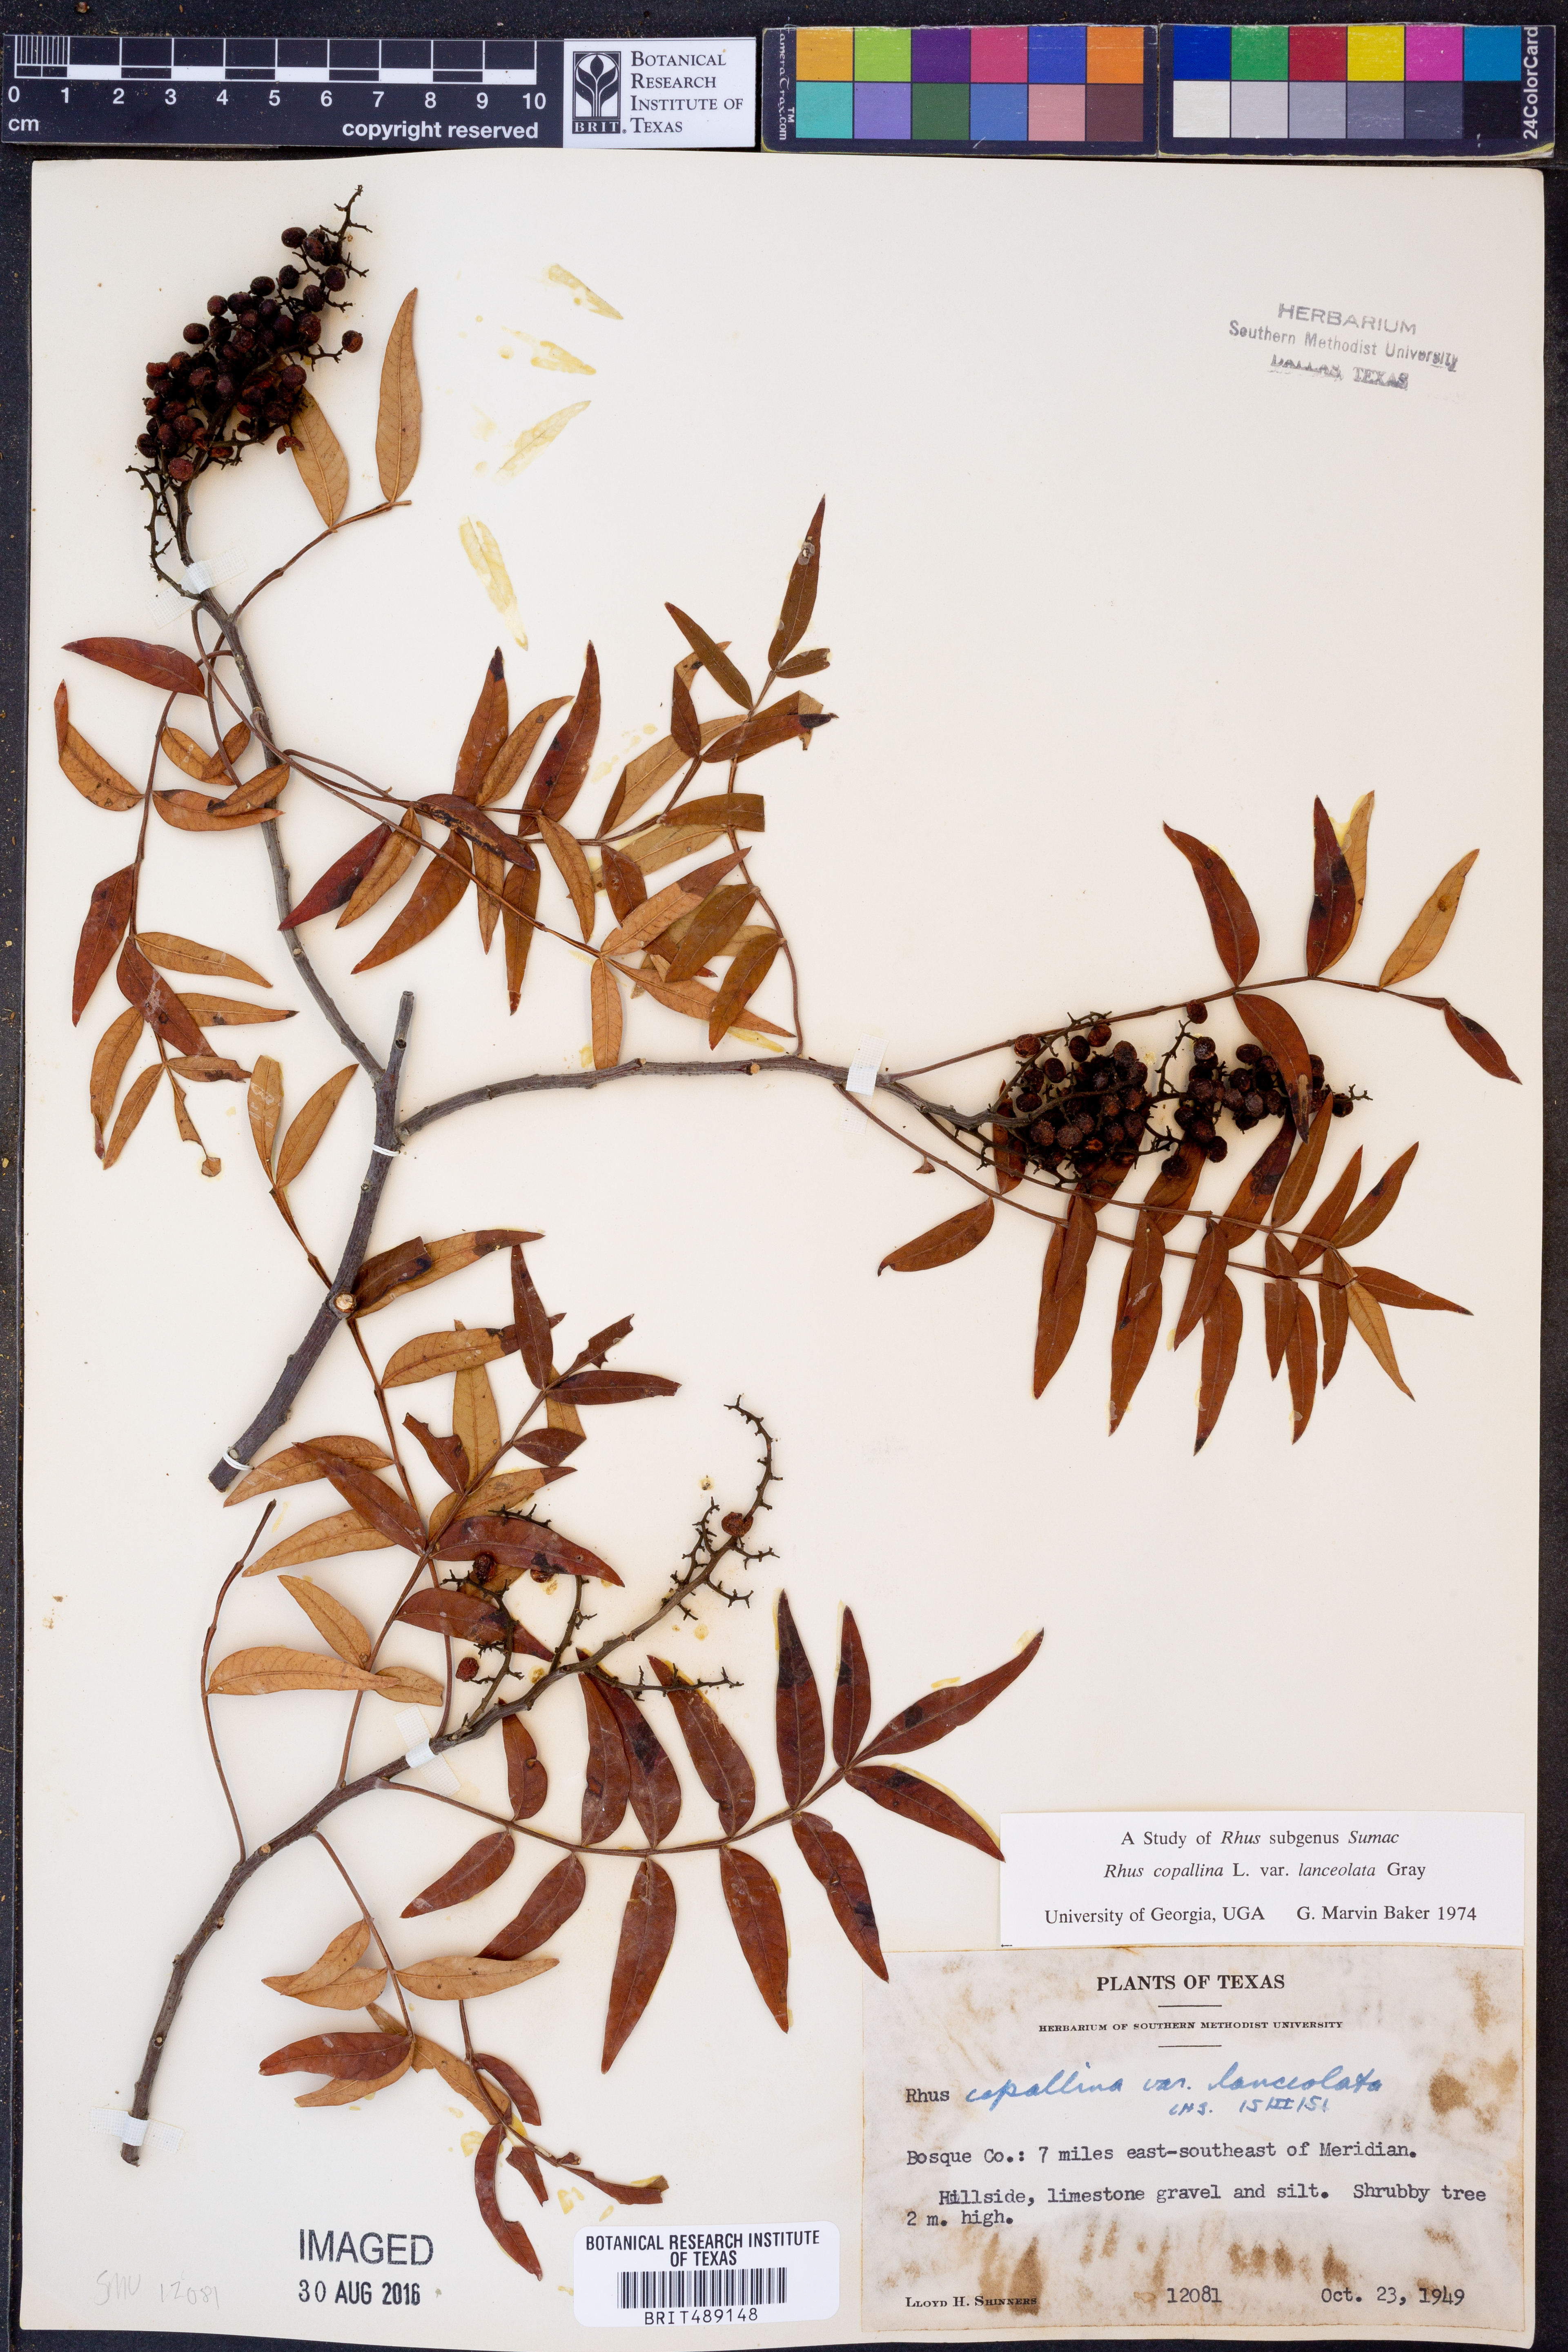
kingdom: Plantae
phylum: Tracheophyta
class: Magnoliopsida
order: Sapindales
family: Anacardiaceae
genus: Rhus
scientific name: Rhus lanceolata
